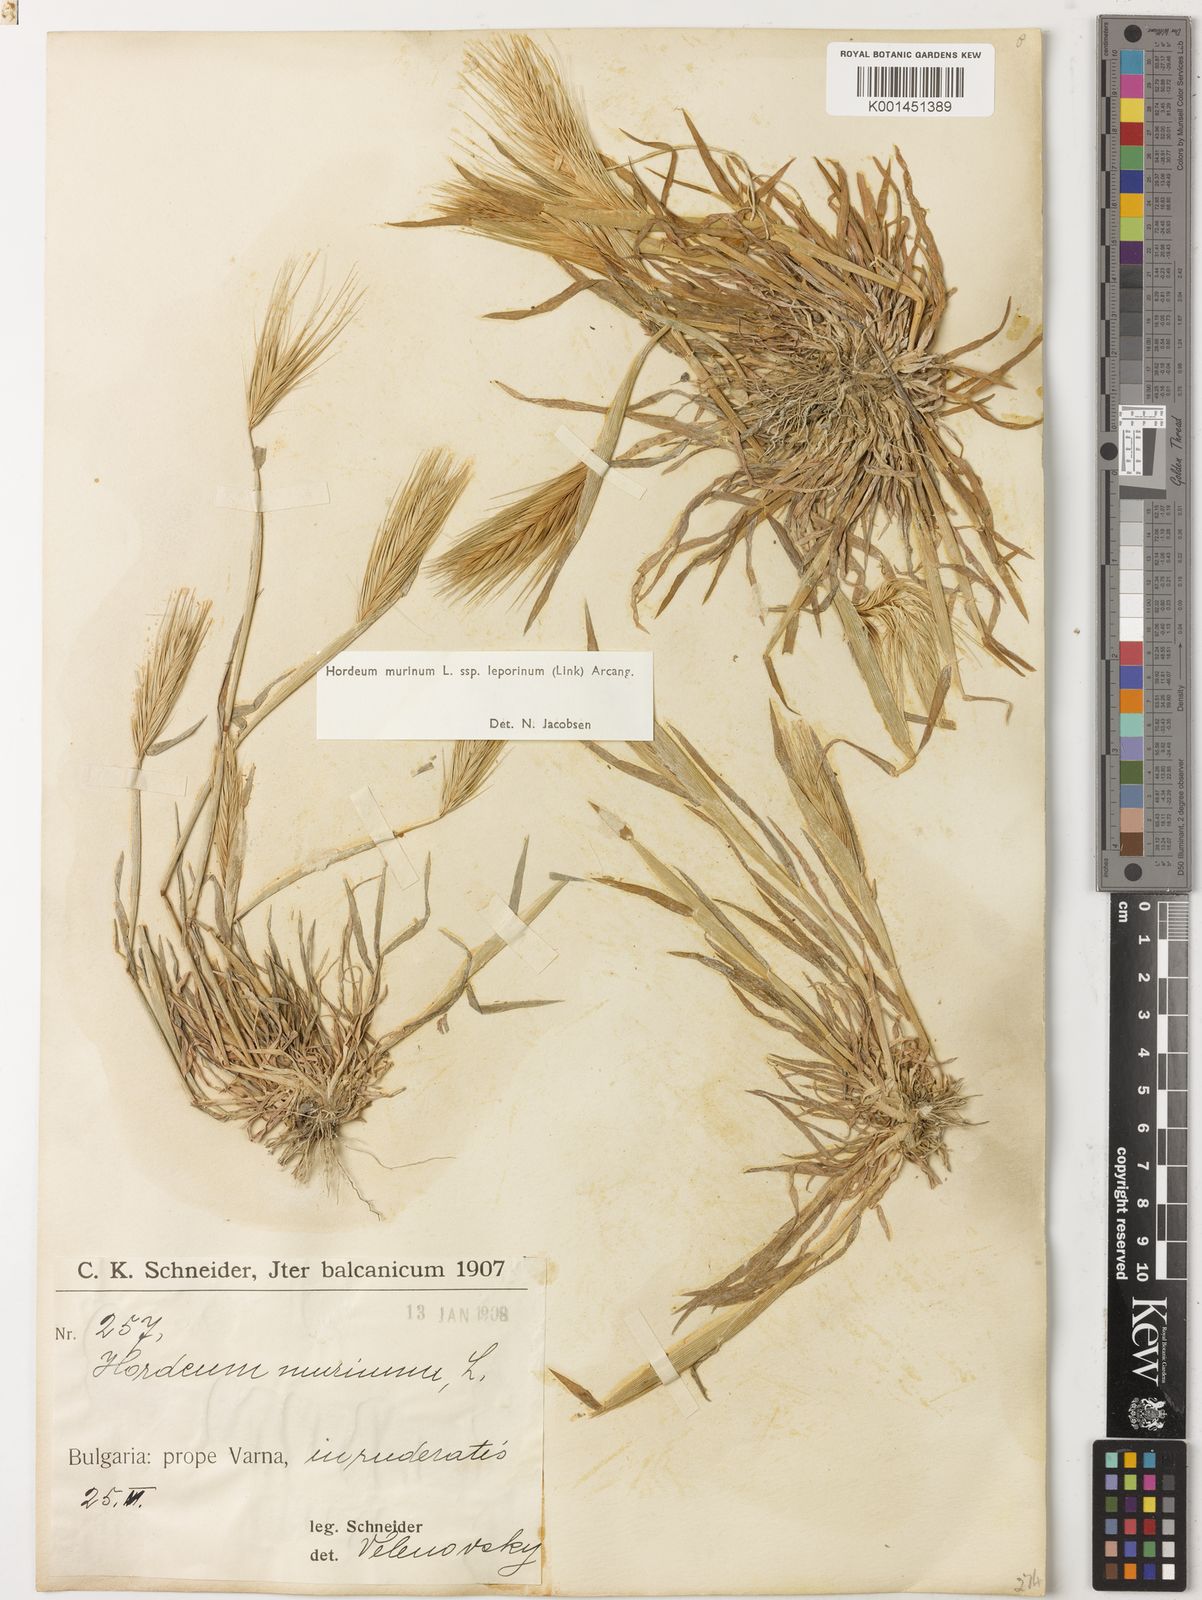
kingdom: Plantae
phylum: Tracheophyta
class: Liliopsida
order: Poales
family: Poaceae
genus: Hordeum
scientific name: Hordeum murinum
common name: Wall barley
